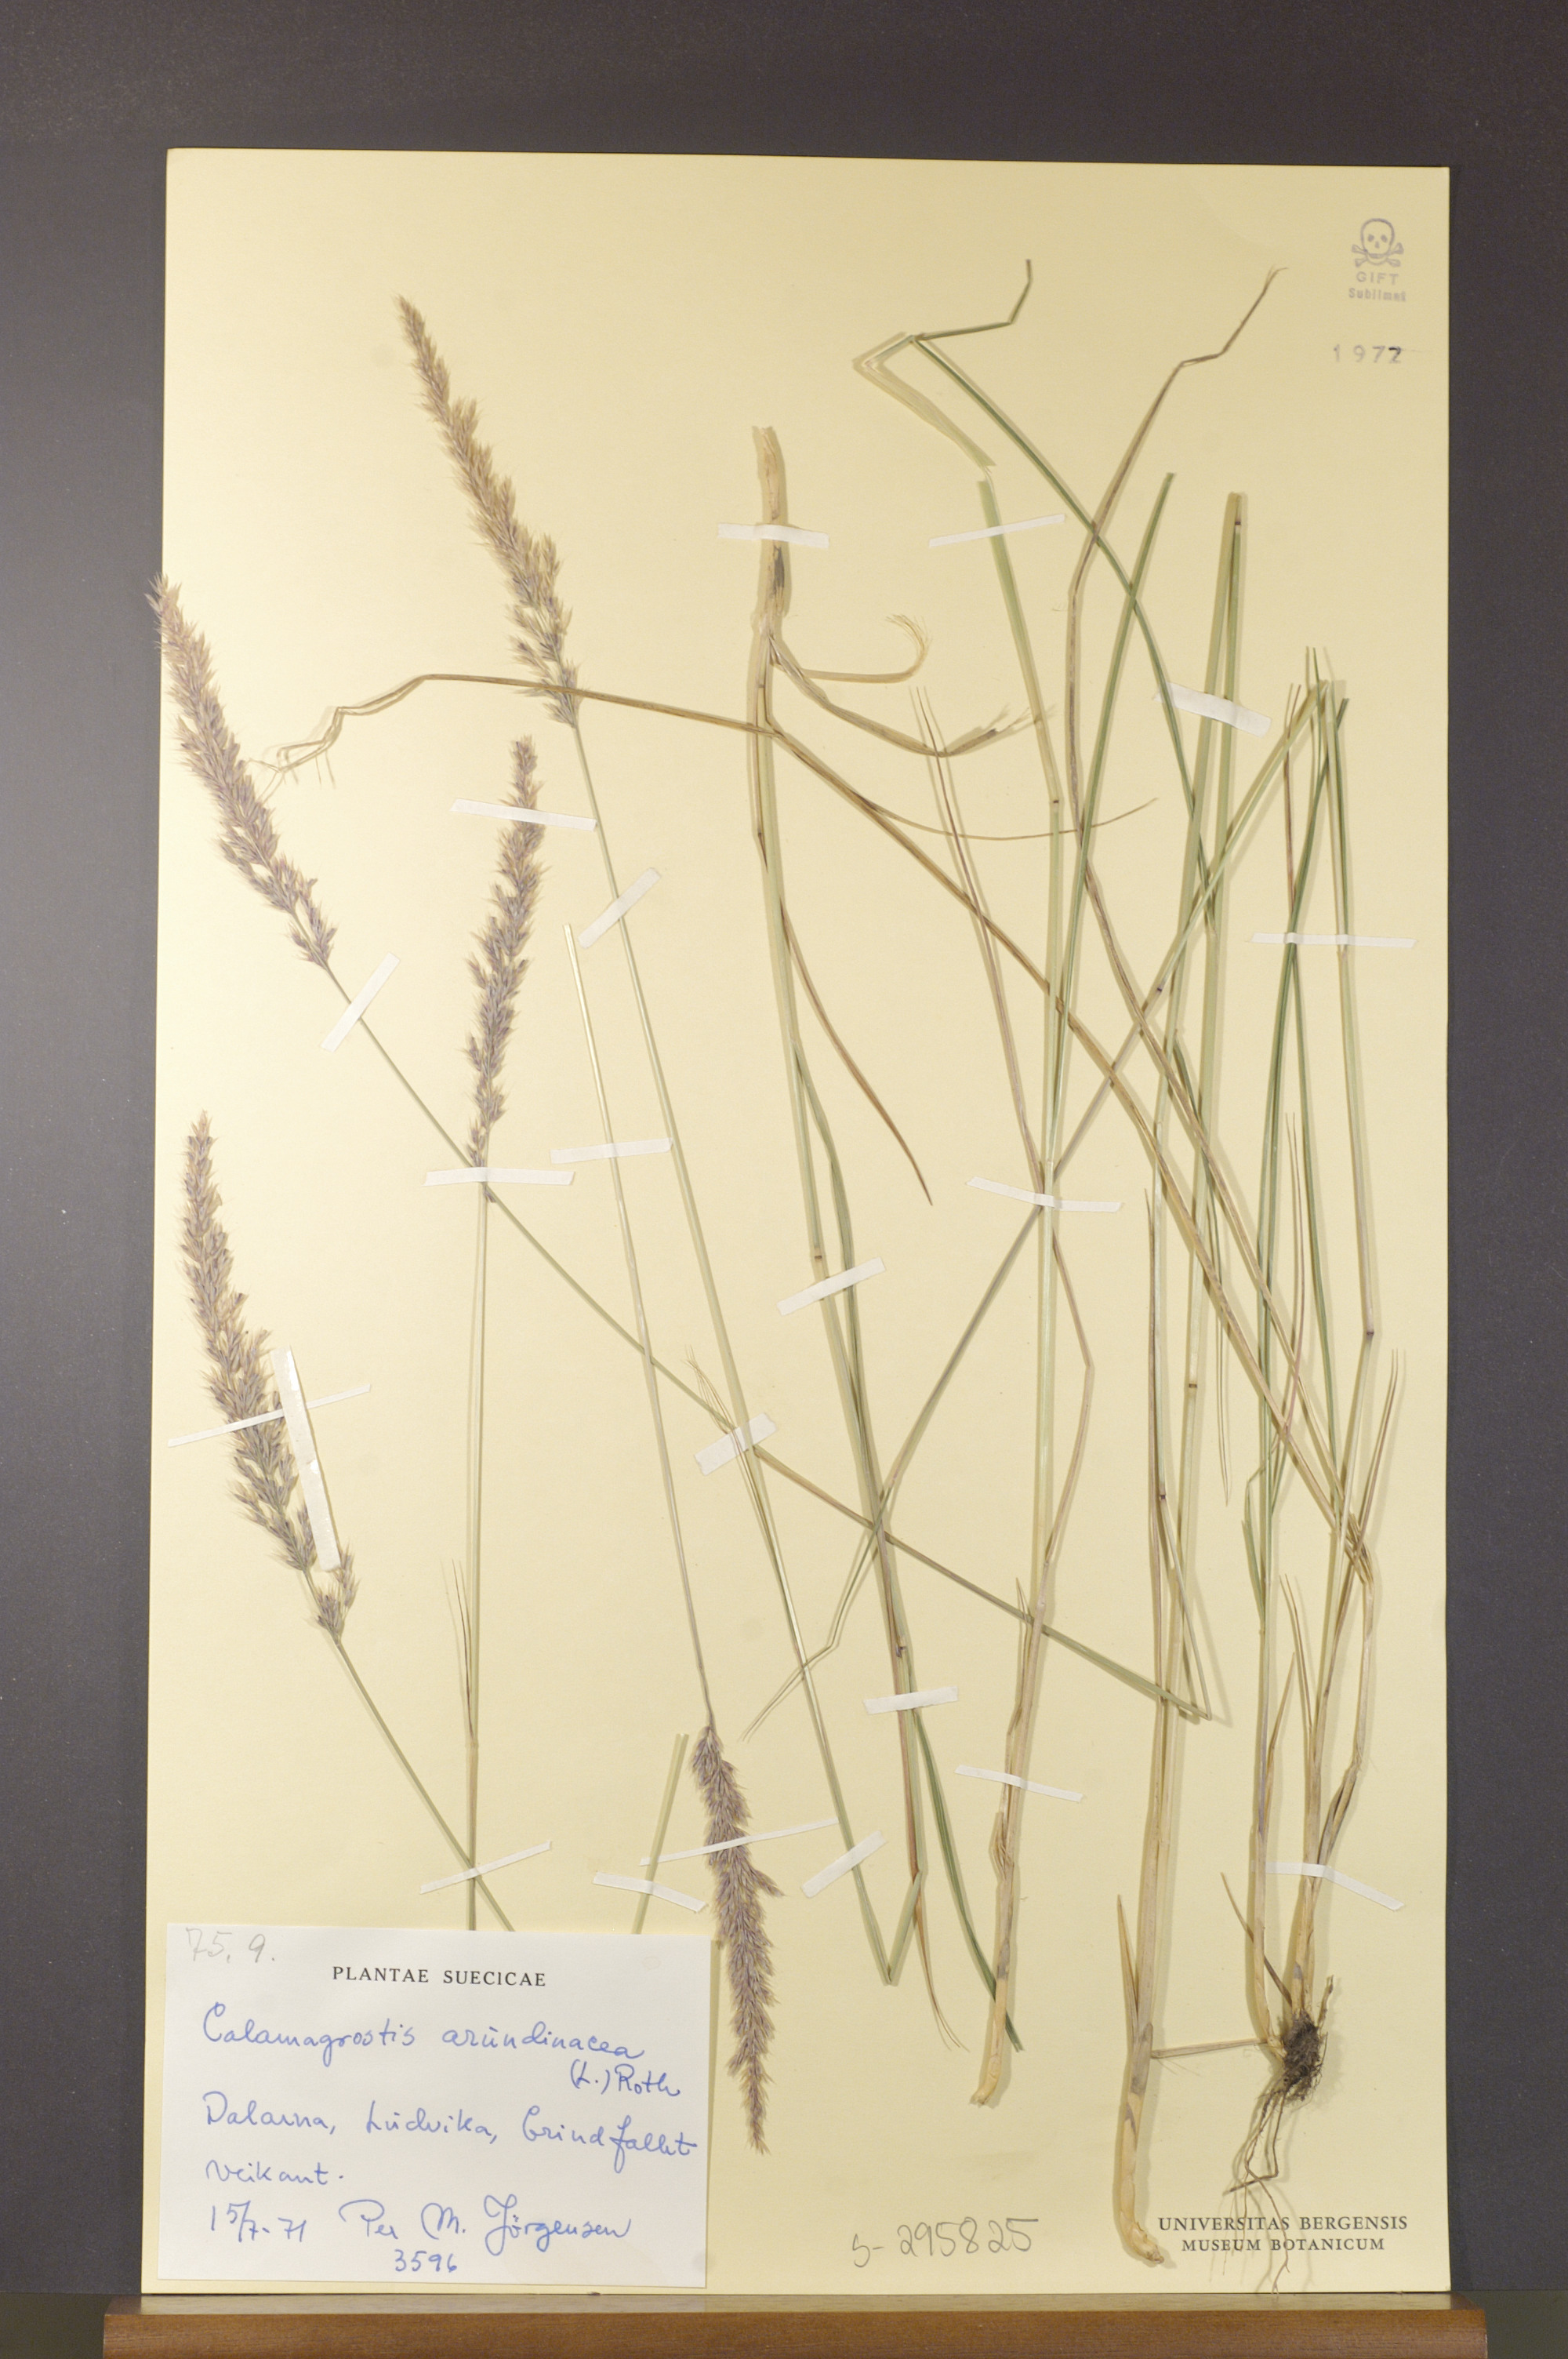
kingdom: Plantae
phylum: Tracheophyta
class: Liliopsida
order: Poales
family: Poaceae
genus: Calamagrostis
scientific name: Calamagrostis arundinacea
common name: Metskastik
